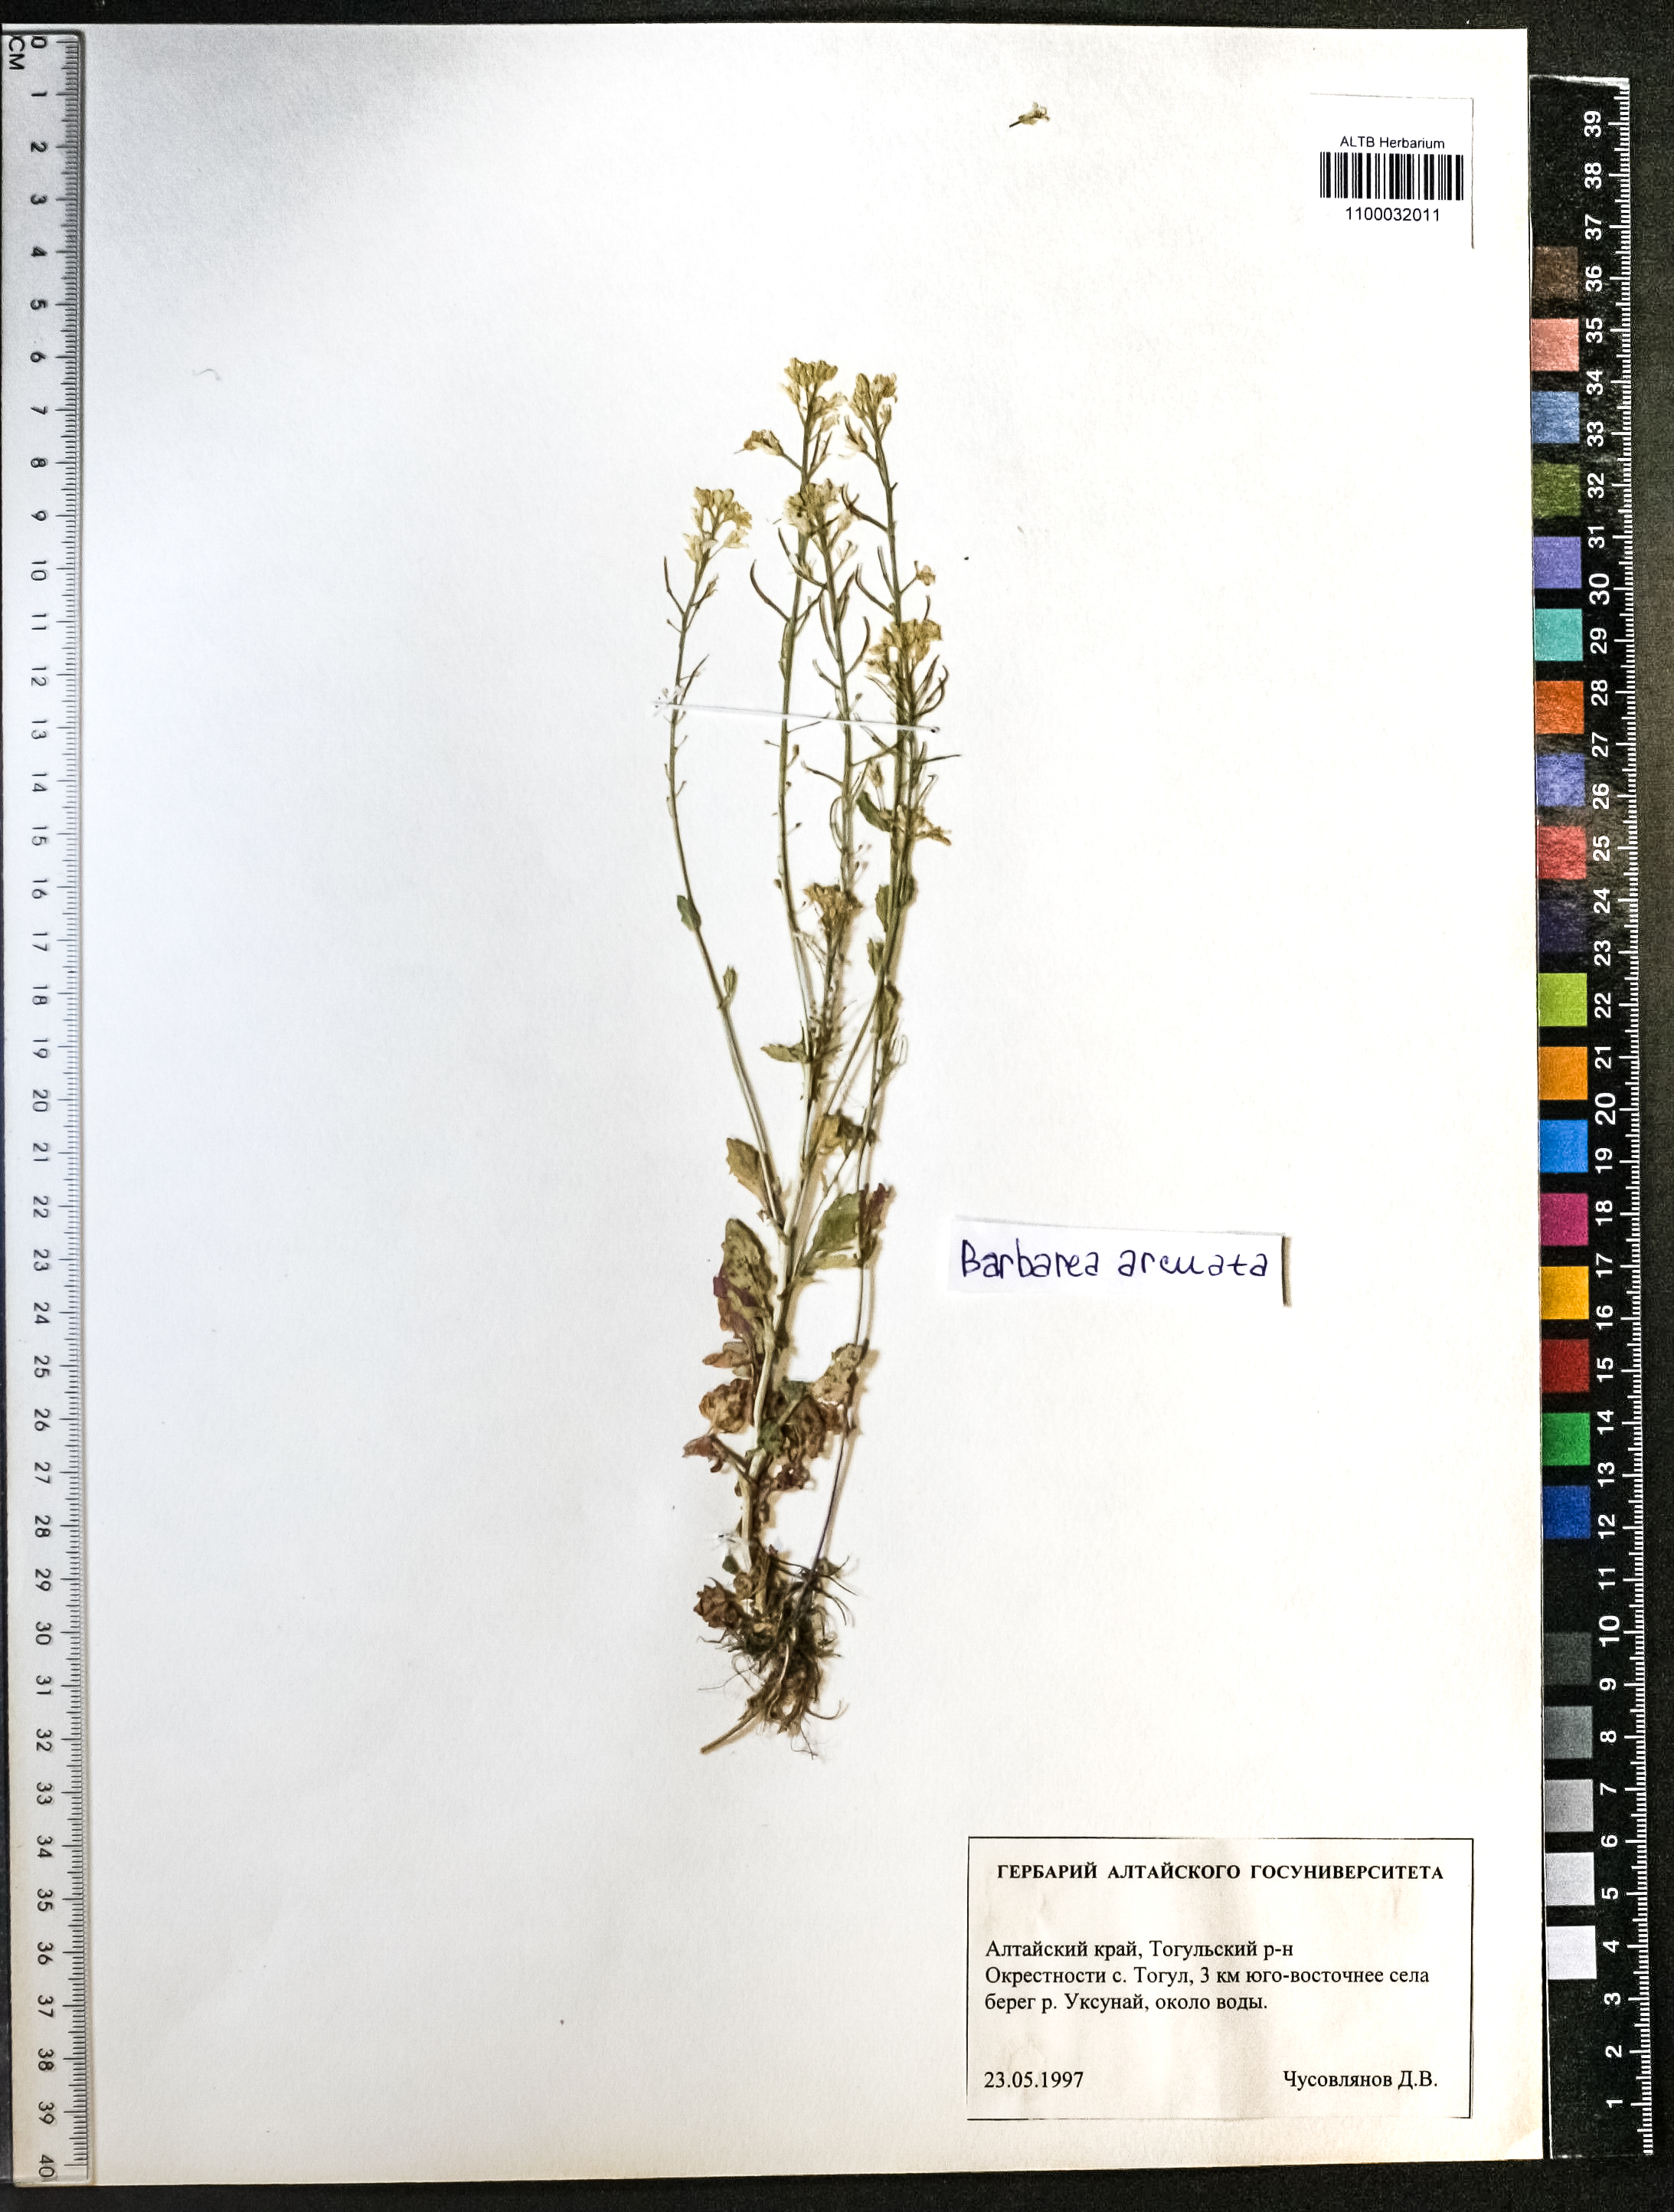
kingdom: Plantae
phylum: Tracheophyta
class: Magnoliopsida
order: Brassicales
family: Brassicaceae
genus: Barbarea
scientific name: Barbarea vulgaris
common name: Cressy-greens
